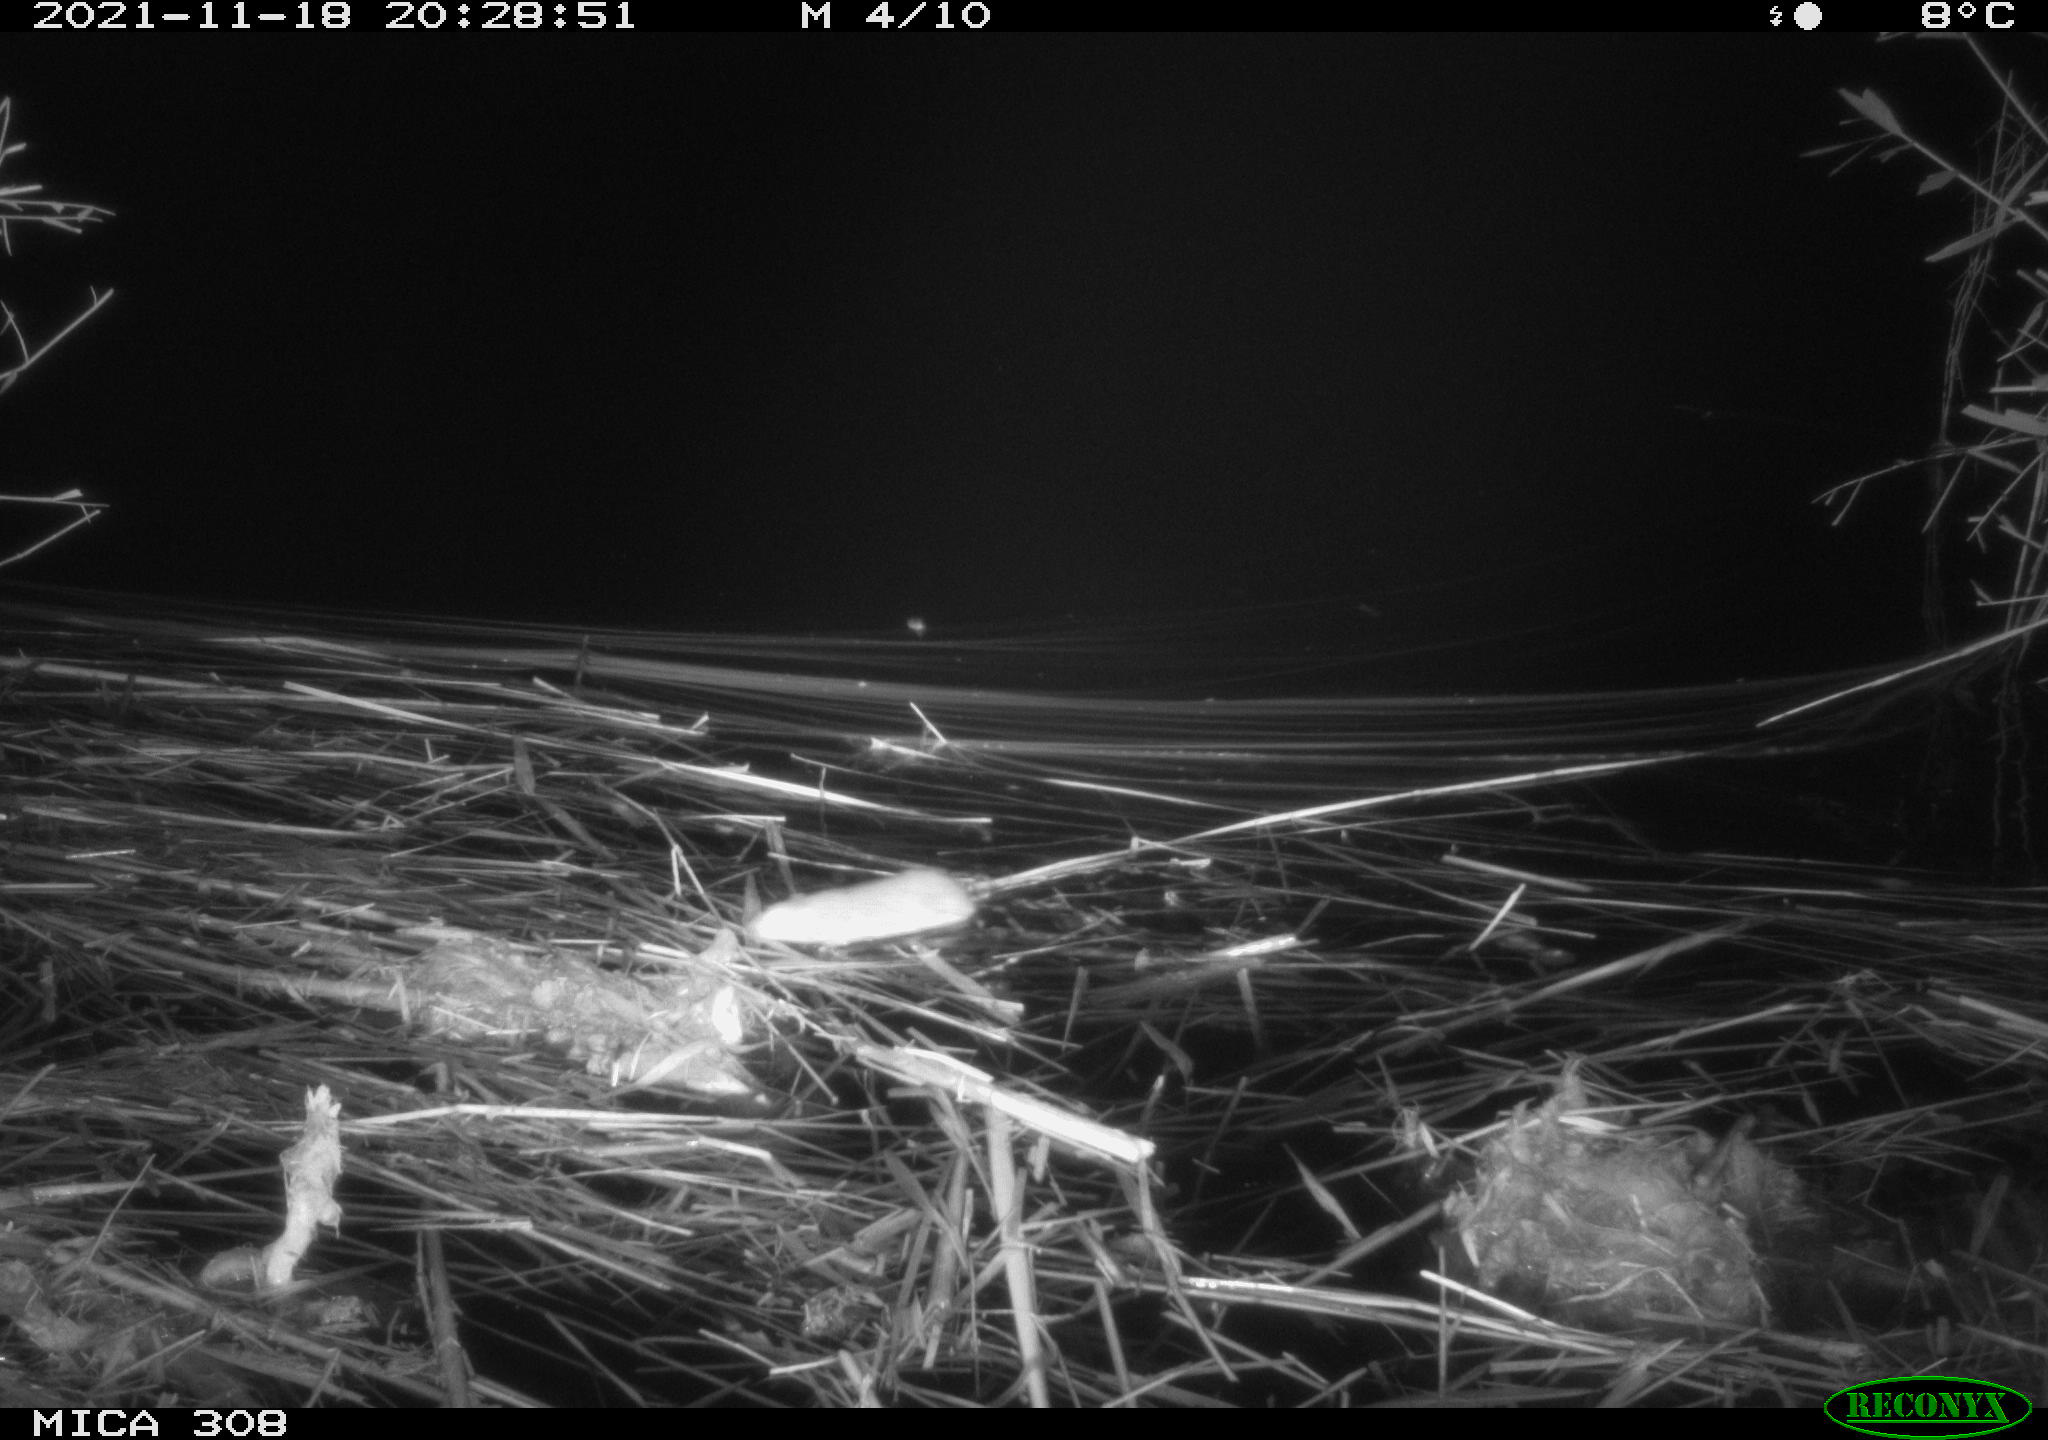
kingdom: Animalia
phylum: Chordata
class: Mammalia
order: Rodentia
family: Muridae
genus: Rattus
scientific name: Rattus norvegicus
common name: Brown rat
